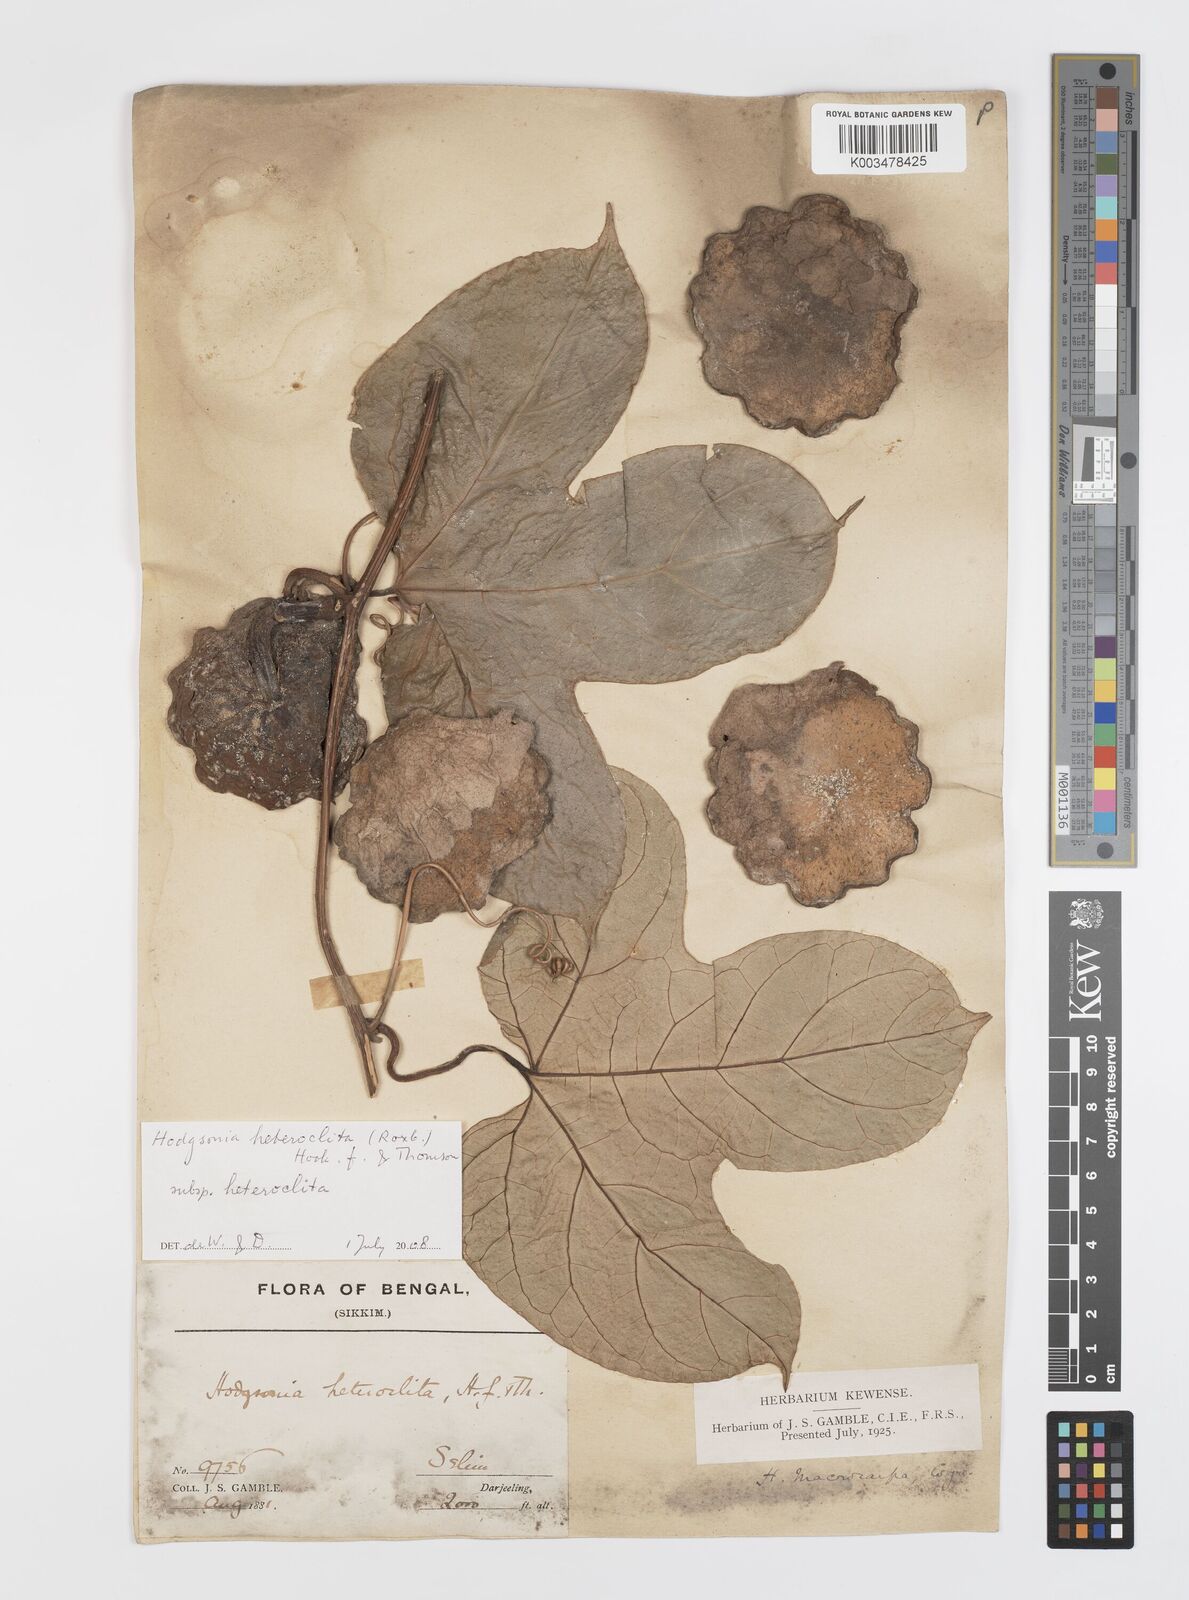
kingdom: Plantae
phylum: Tracheophyta
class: Magnoliopsida
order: Cucurbitales
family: Cucurbitaceae
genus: Hodgsonia
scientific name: Hodgsonia macrocarpa
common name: Chinese lardfruit
